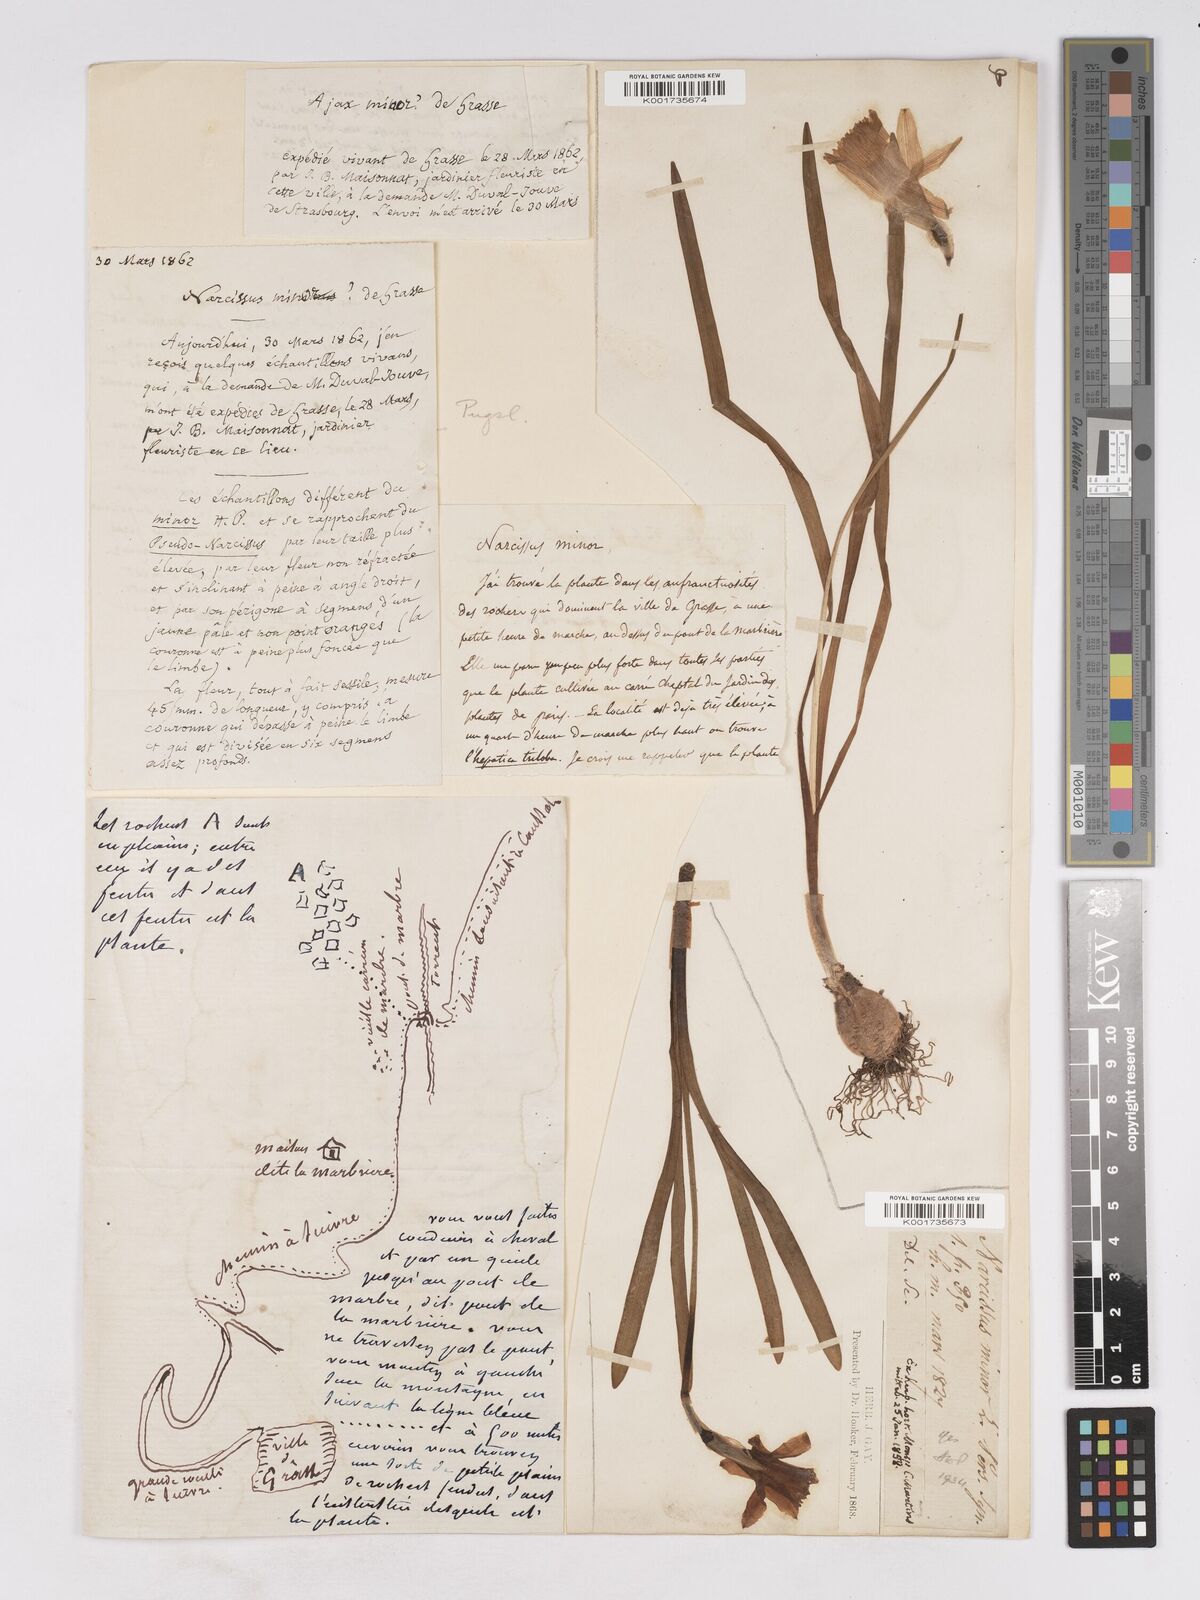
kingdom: Plantae
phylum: Tracheophyta
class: Liliopsida
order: Asparagales
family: Amaryllidaceae
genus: Narcissus
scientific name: Narcissus minor
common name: Lesser daffodil
